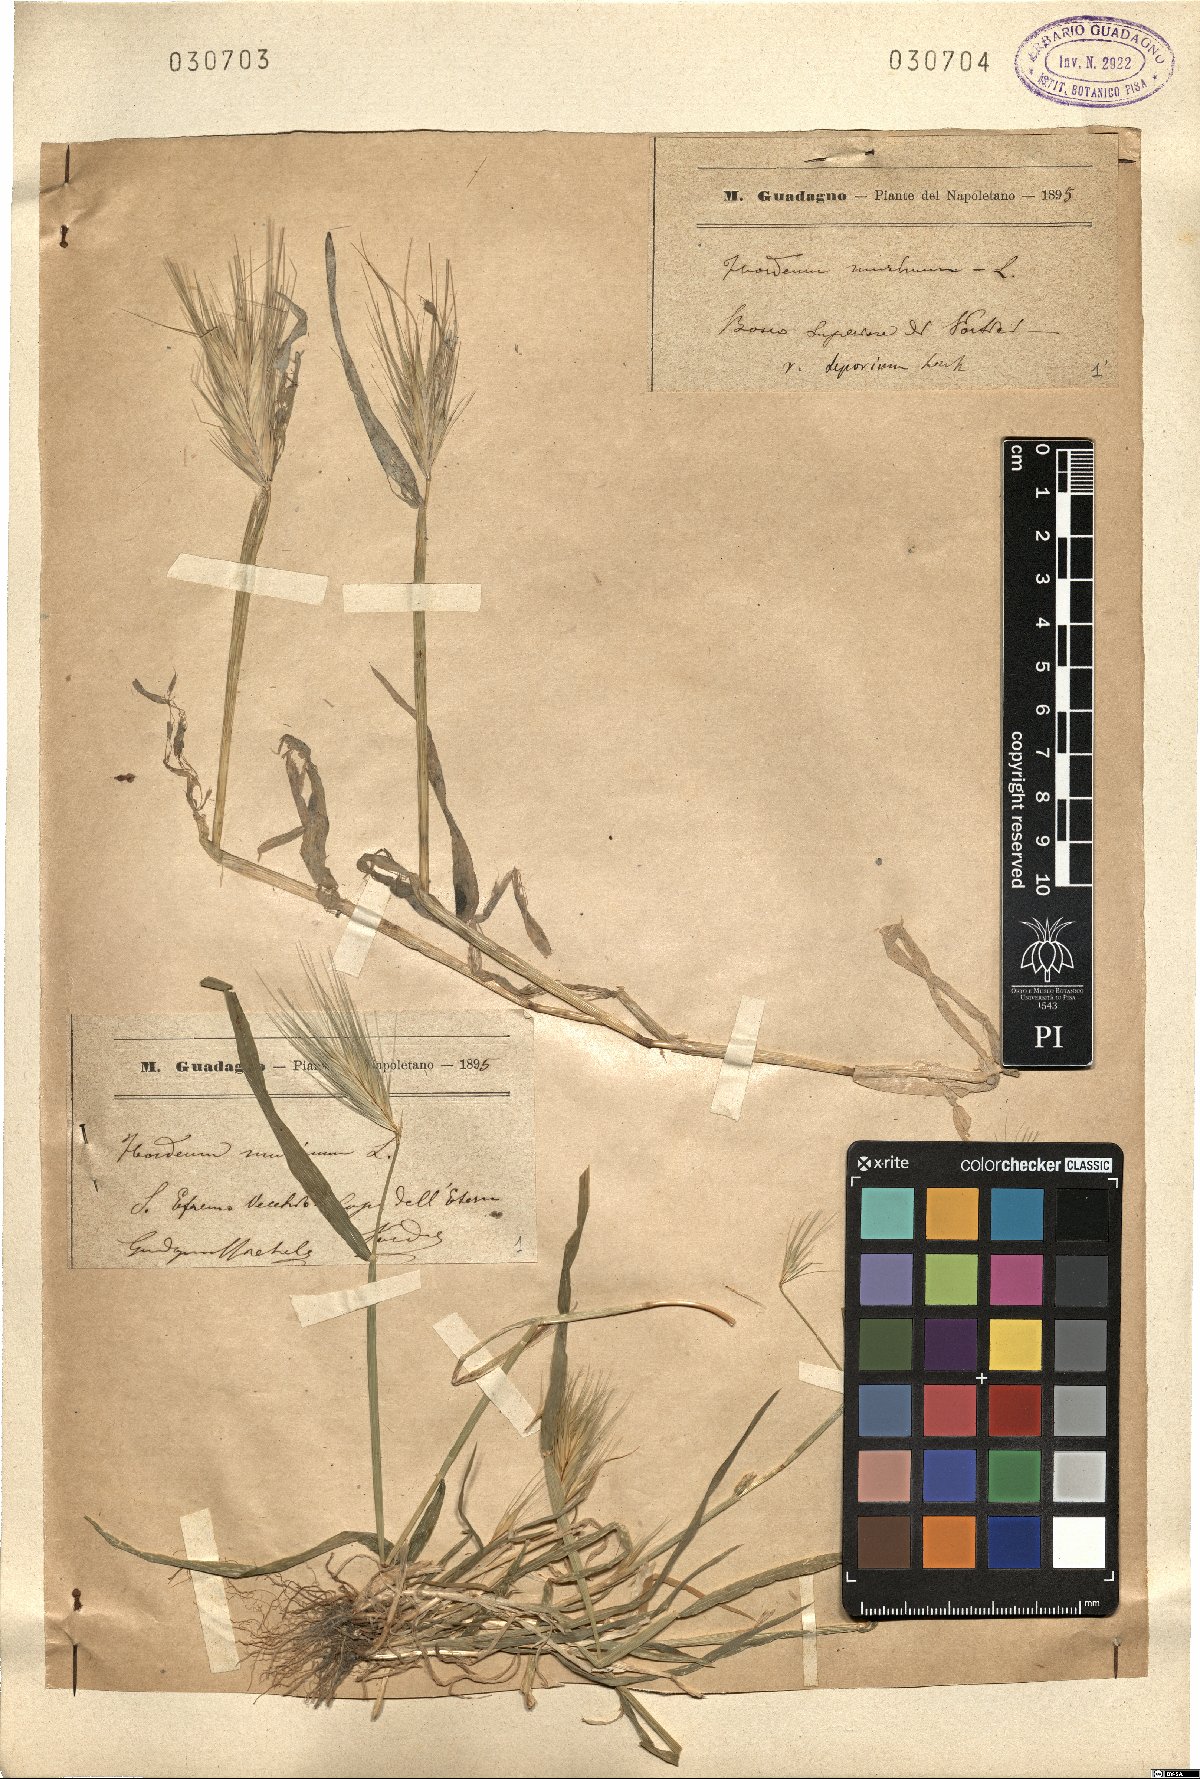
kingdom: Plantae
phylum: Tracheophyta
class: Liliopsida
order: Poales
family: Poaceae
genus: Hordeum
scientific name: Hordeum murinum
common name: Wall barley
